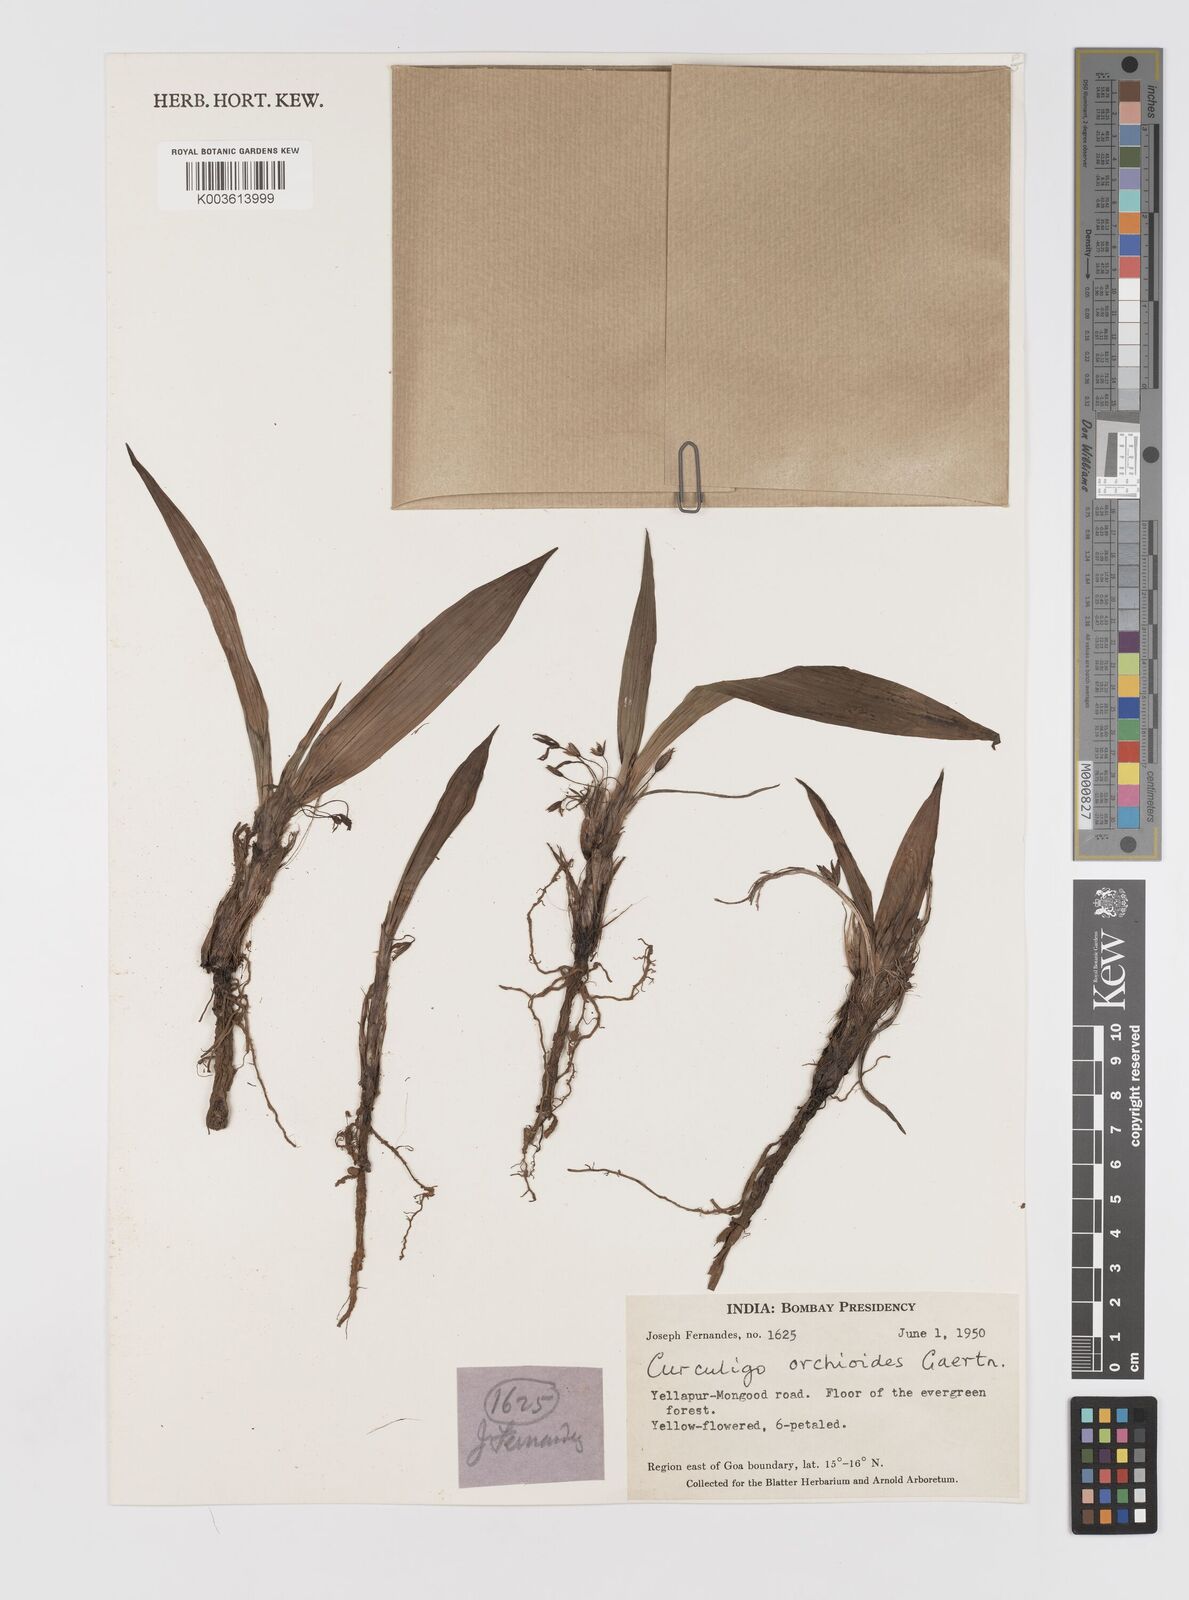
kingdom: Plantae
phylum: Tracheophyta
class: Liliopsida
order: Asparagales
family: Hypoxidaceae
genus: Curculigo
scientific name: Curculigo orchioides
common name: Golden eye-grass
